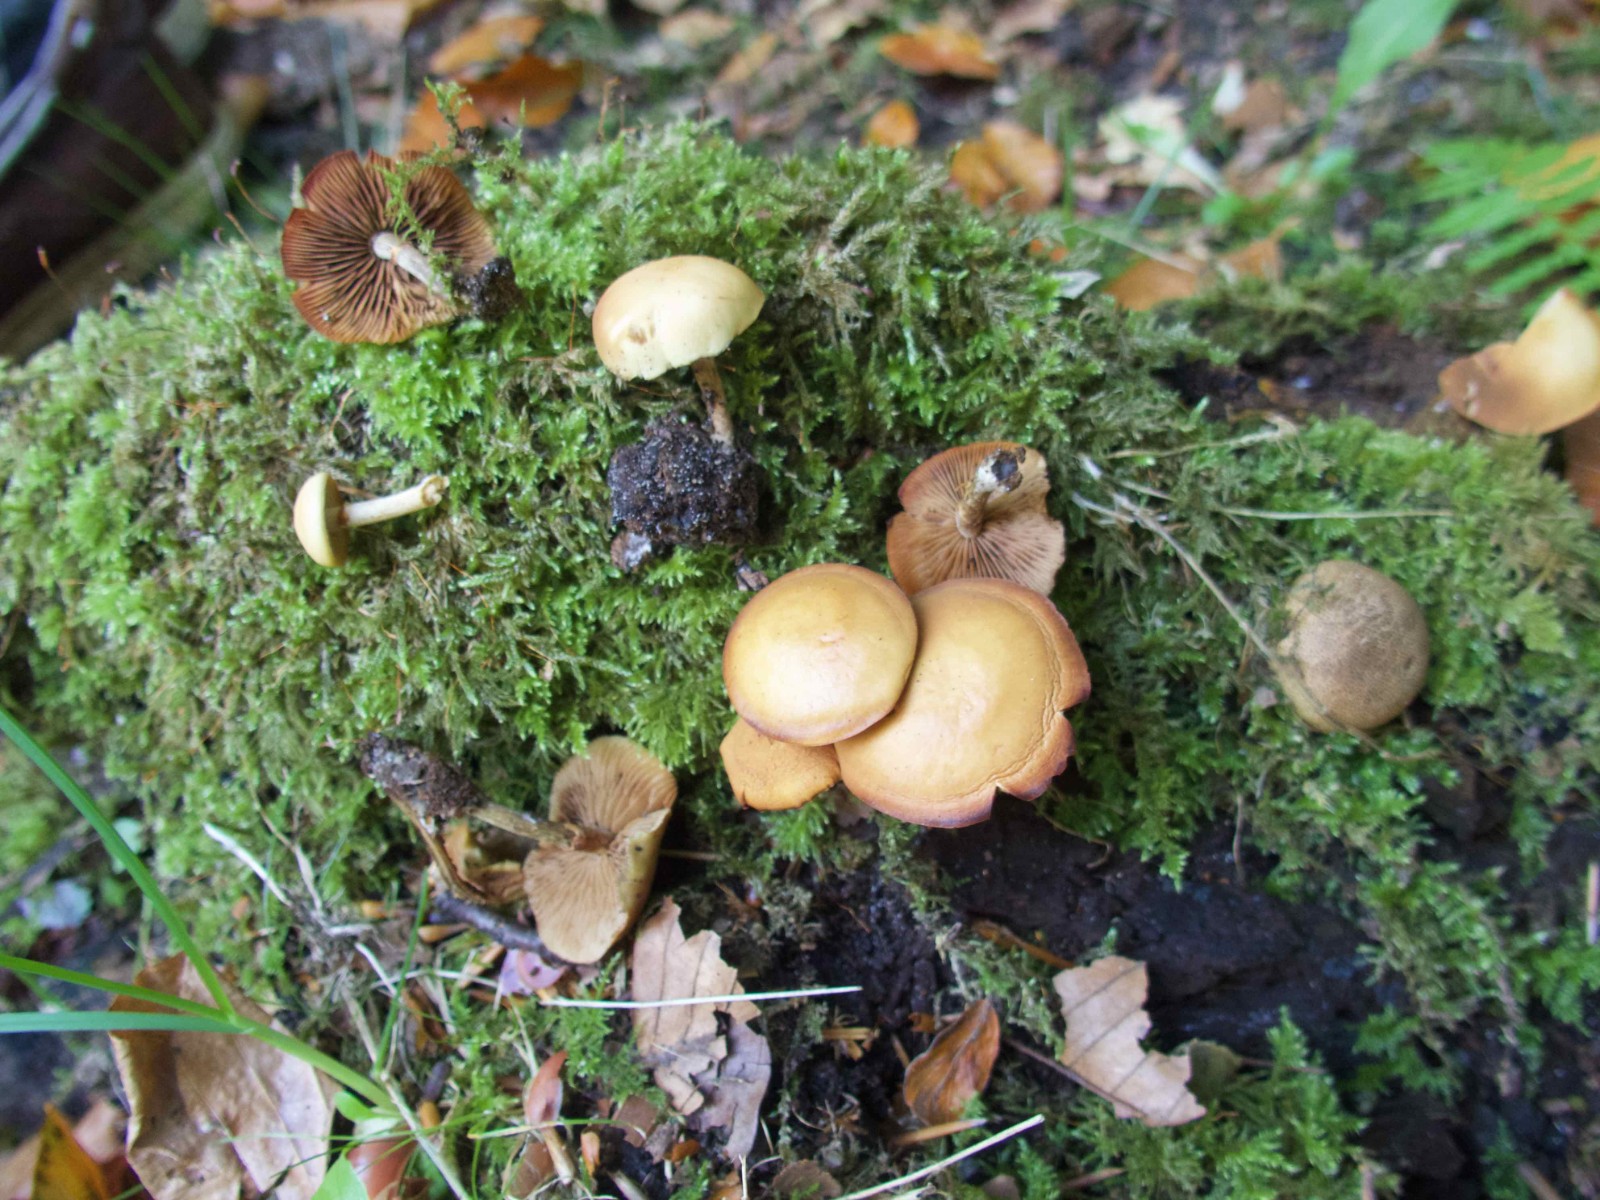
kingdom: Fungi
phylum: Basidiomycota
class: Agaricomycetes
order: Agaricales
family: Hymenogastraceae
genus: Galerina
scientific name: Galerina marginata
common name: randbæltet hjelmhat
